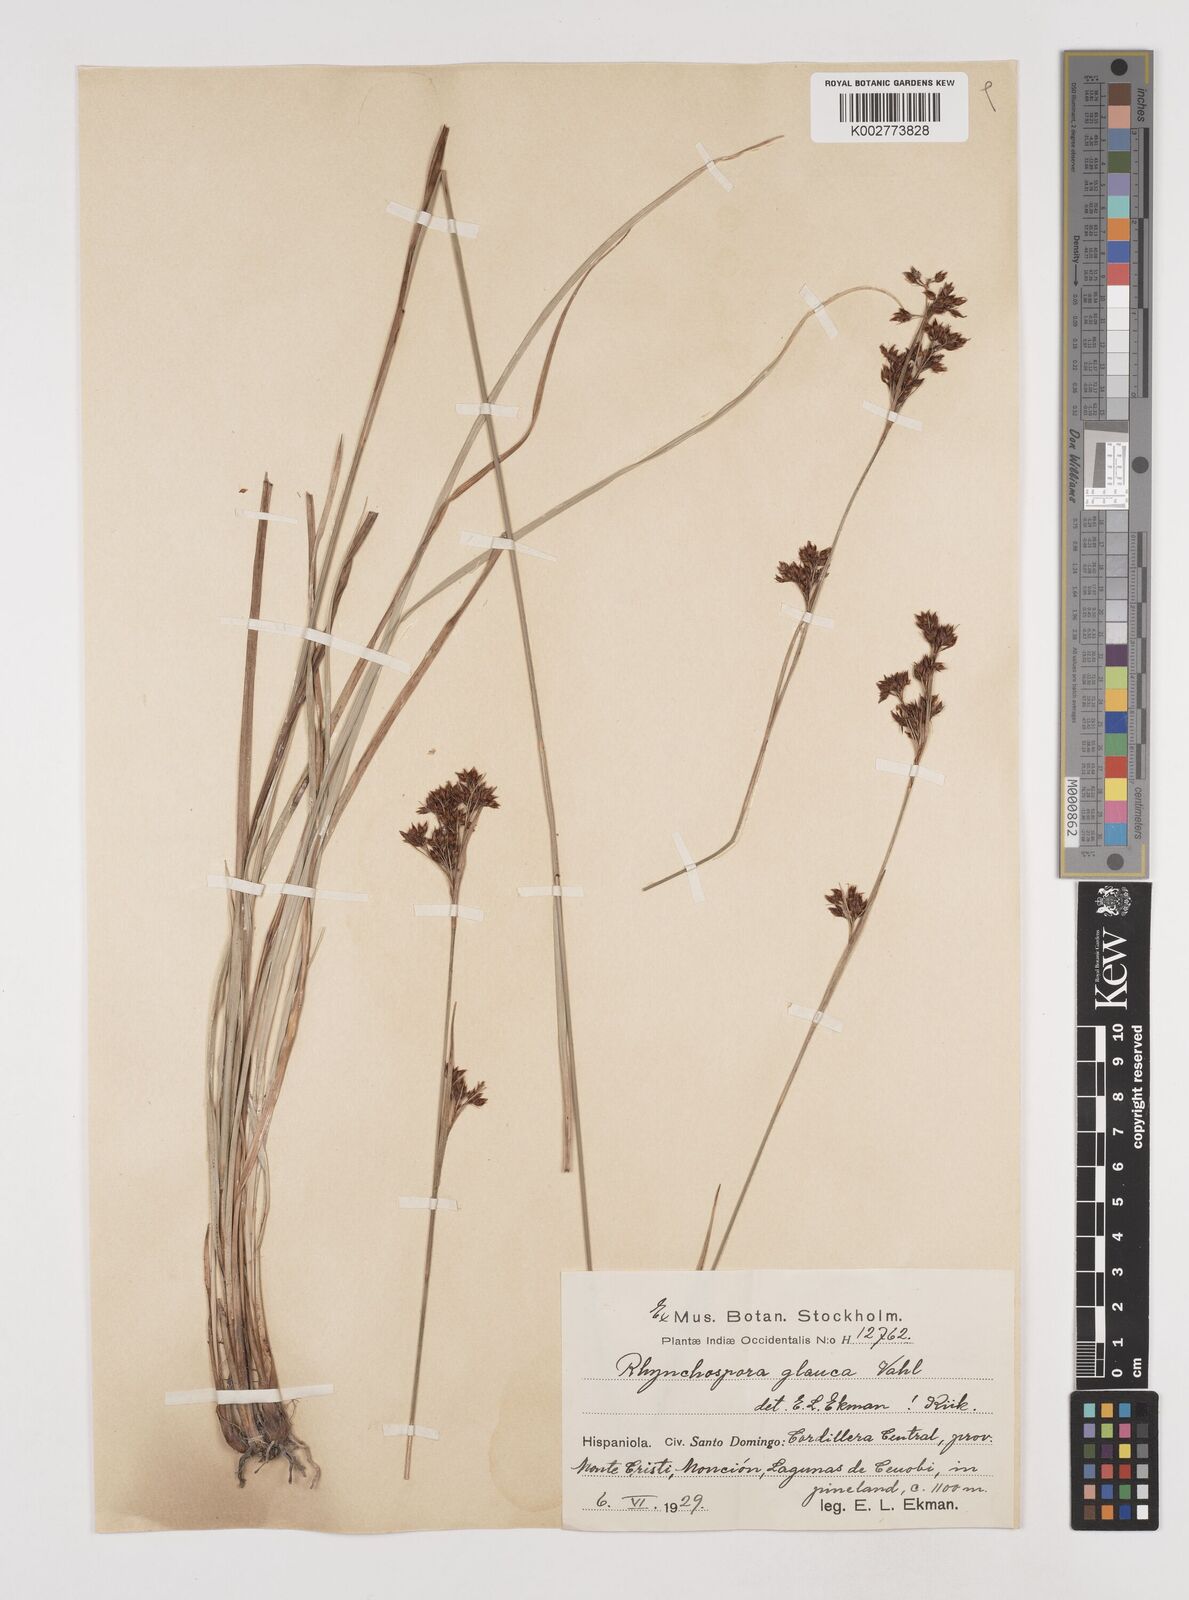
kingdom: Plantae
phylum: Tracheophyta
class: Liliopsida
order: Poales
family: Cyperaceae
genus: Rhynchospora
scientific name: Rhynchospora rugosa
